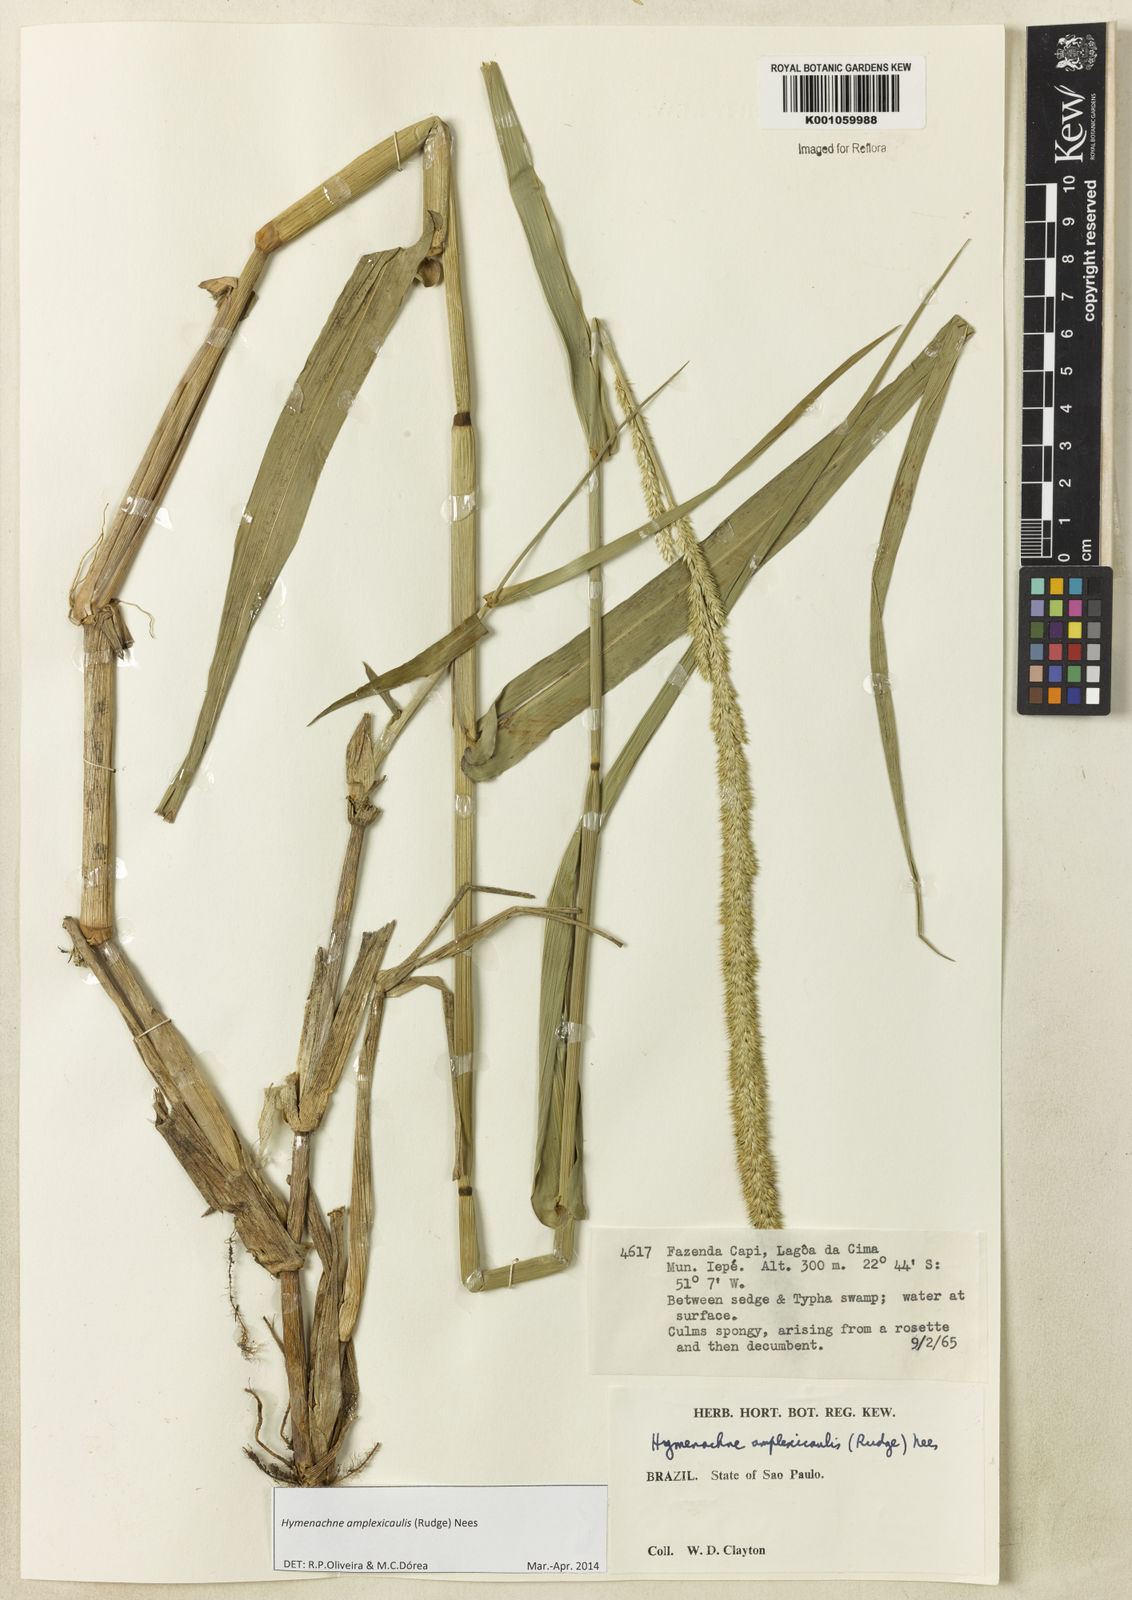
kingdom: Plantae
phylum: Tracheophyta
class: Liliopsida
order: Poales
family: Poaceae
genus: Hymenachne
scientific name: Hymenachne amplexicaulis
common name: Olive hymenachne
